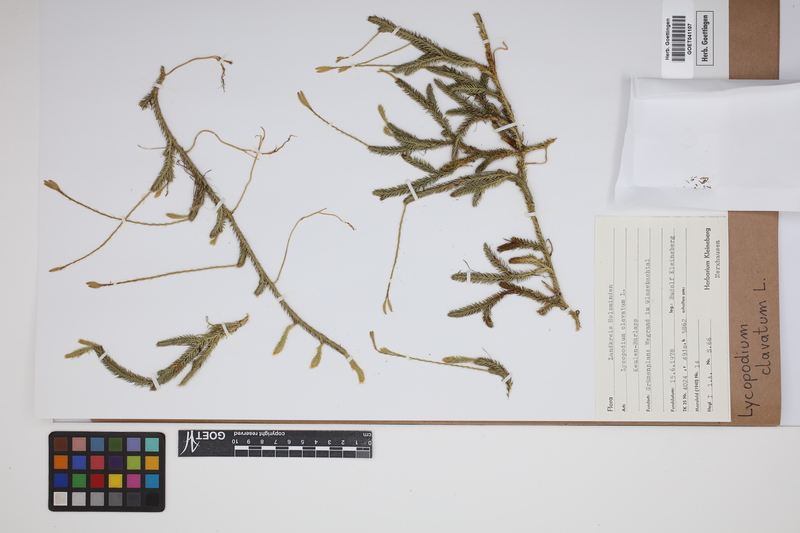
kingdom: Plantae
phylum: Tracheophyta
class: Lycopodiopsida
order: Lycopodiales
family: Lycopodiaceae
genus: Lycopodium
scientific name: Lycopodium clavatum
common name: Stag's-horn clubmoss
